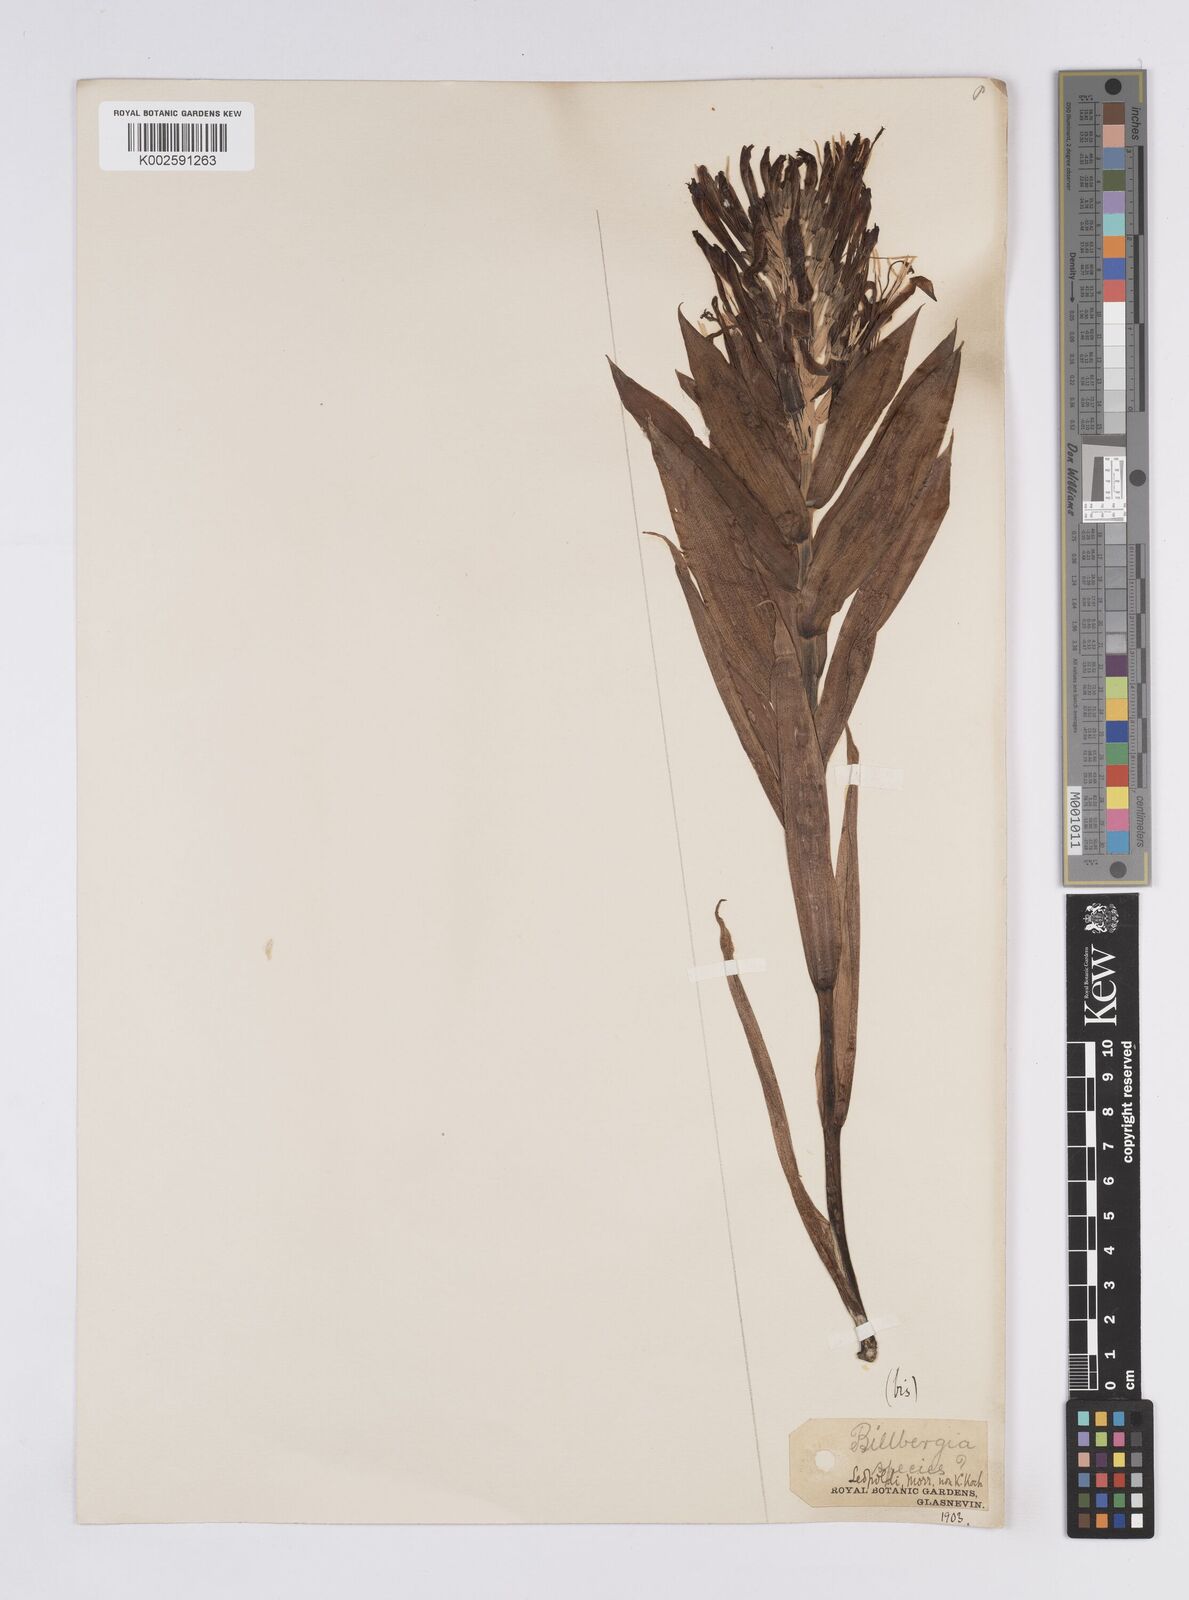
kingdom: Plantae
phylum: Tracheophyta
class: Liliopsida
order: Poales
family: Bromeliaceae
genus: Billbergia
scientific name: Billbergia brasiliensis
